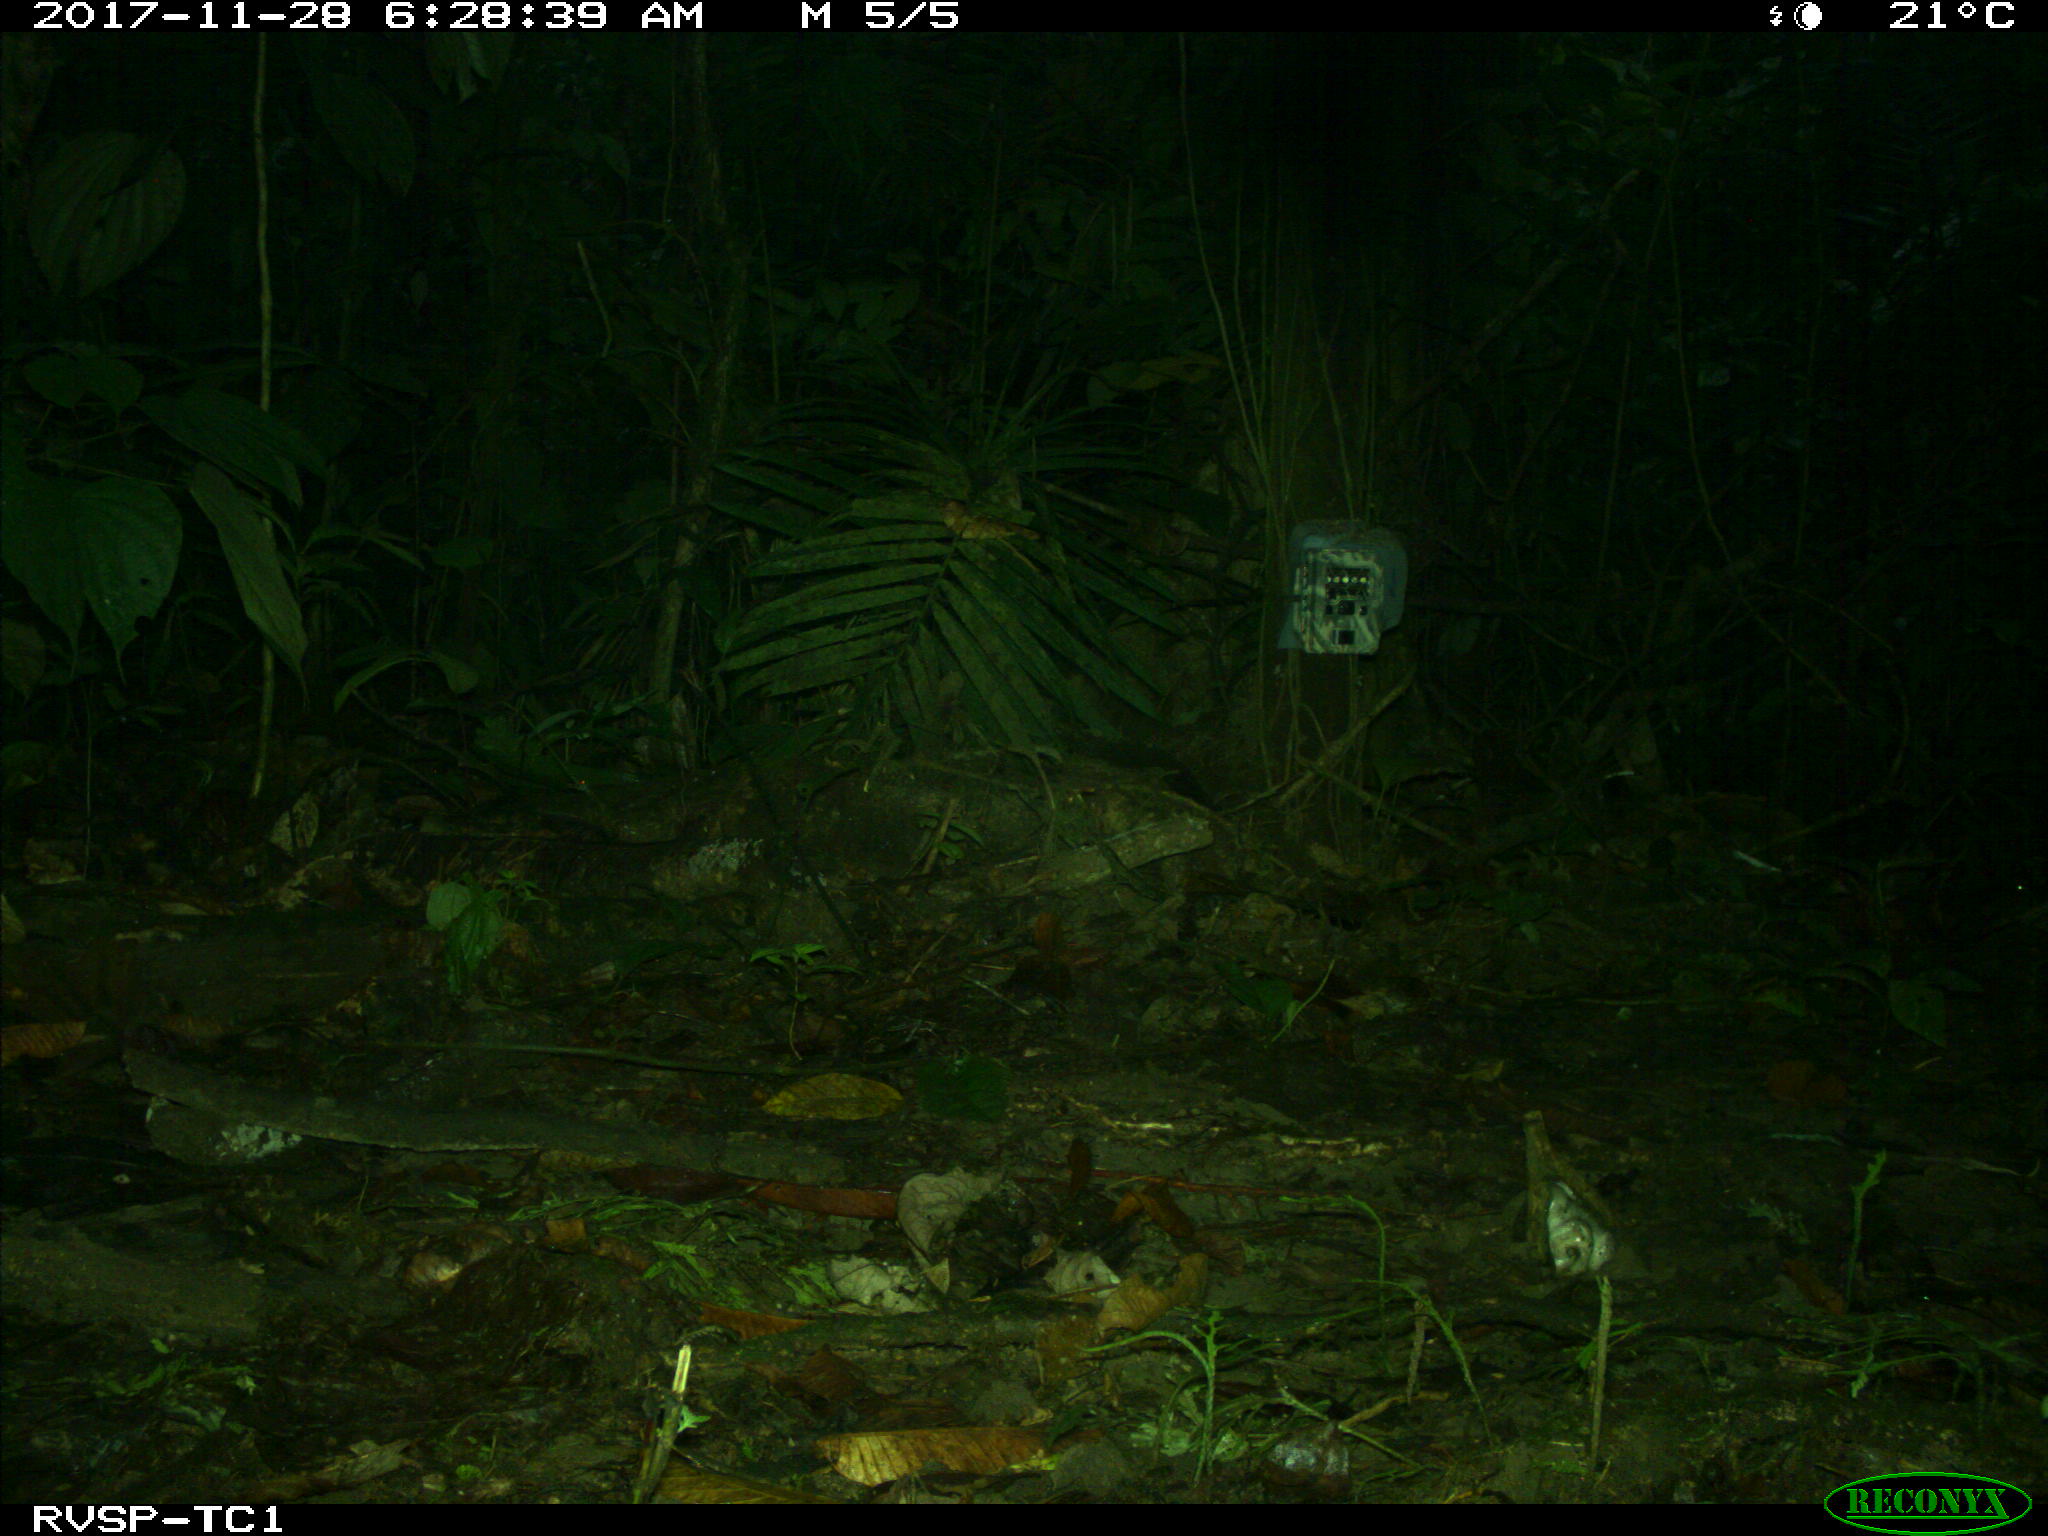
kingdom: Animalia
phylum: Chordata
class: Mammalia
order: Rodentia
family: Dasyproctidae
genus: Dasyprocta
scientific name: Dasyprocta punctata
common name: Central american agouti
